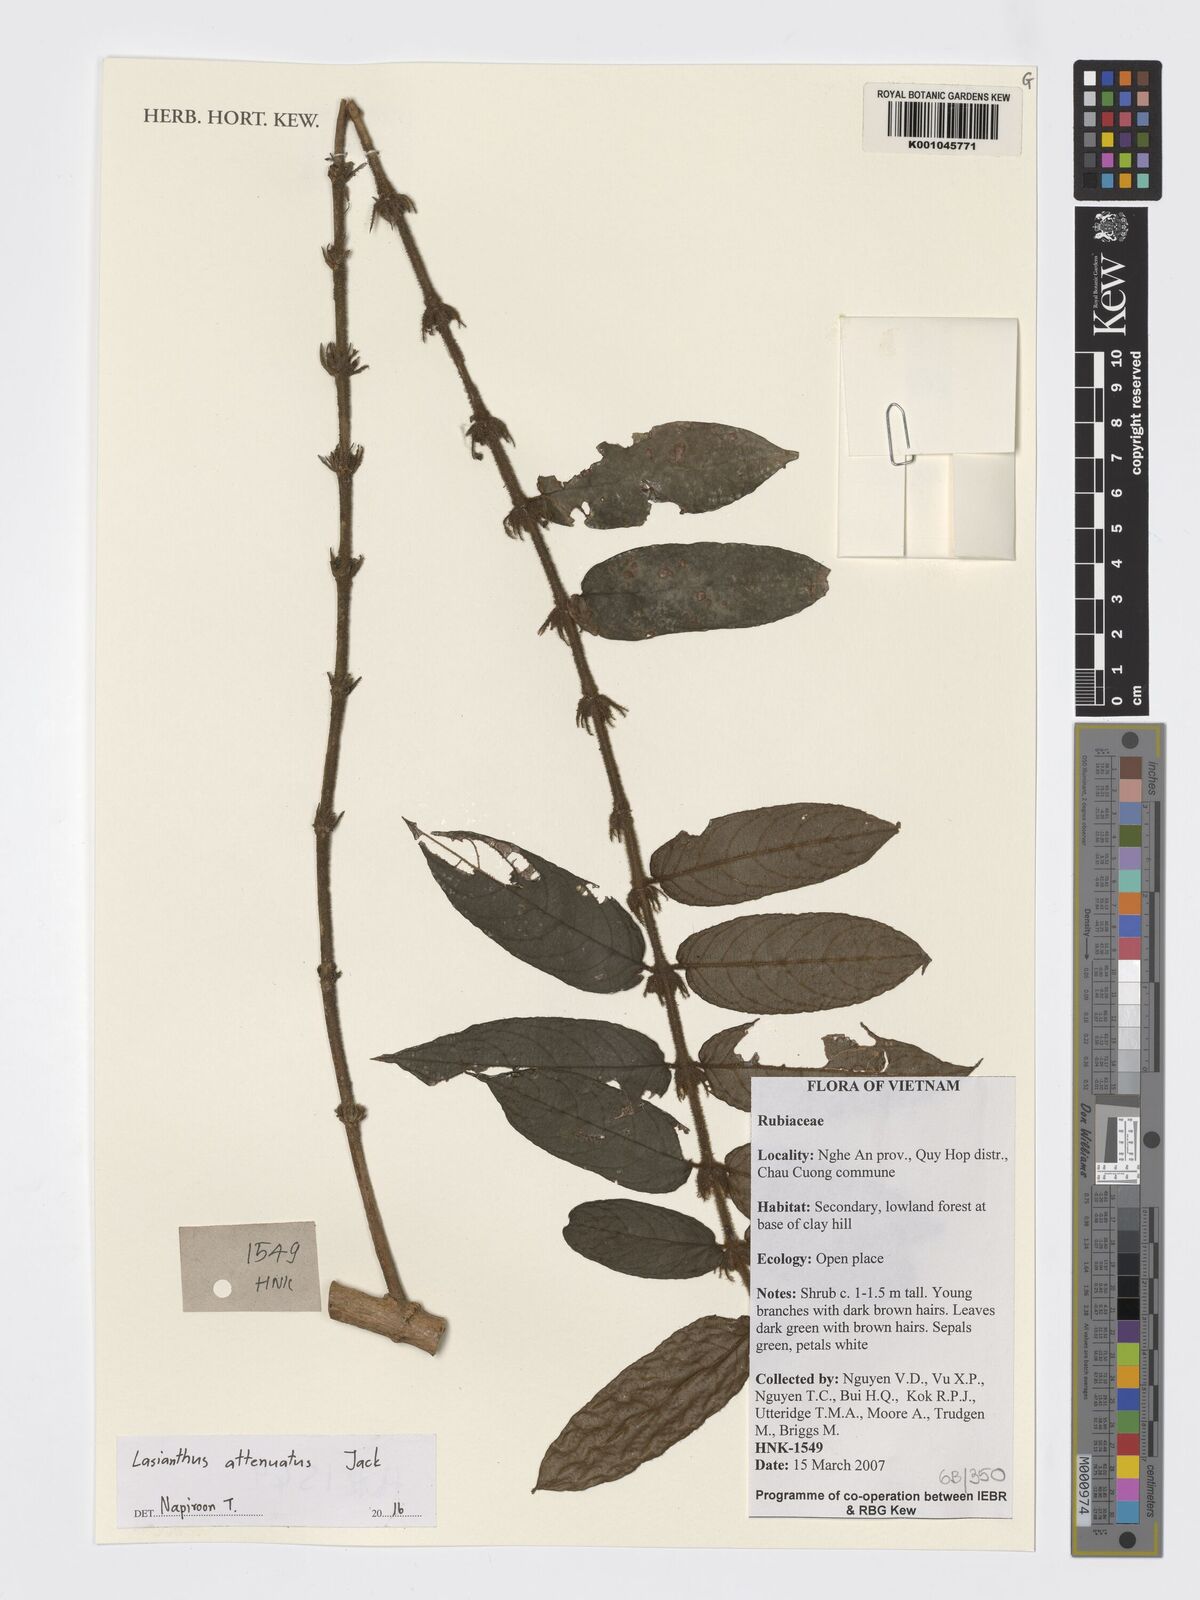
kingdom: Plantae
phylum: Tracheophyta
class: Magnoliopsida
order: Gentianales
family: Rubiaceae
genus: Lasianthus
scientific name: Lasianthus attenuatus
